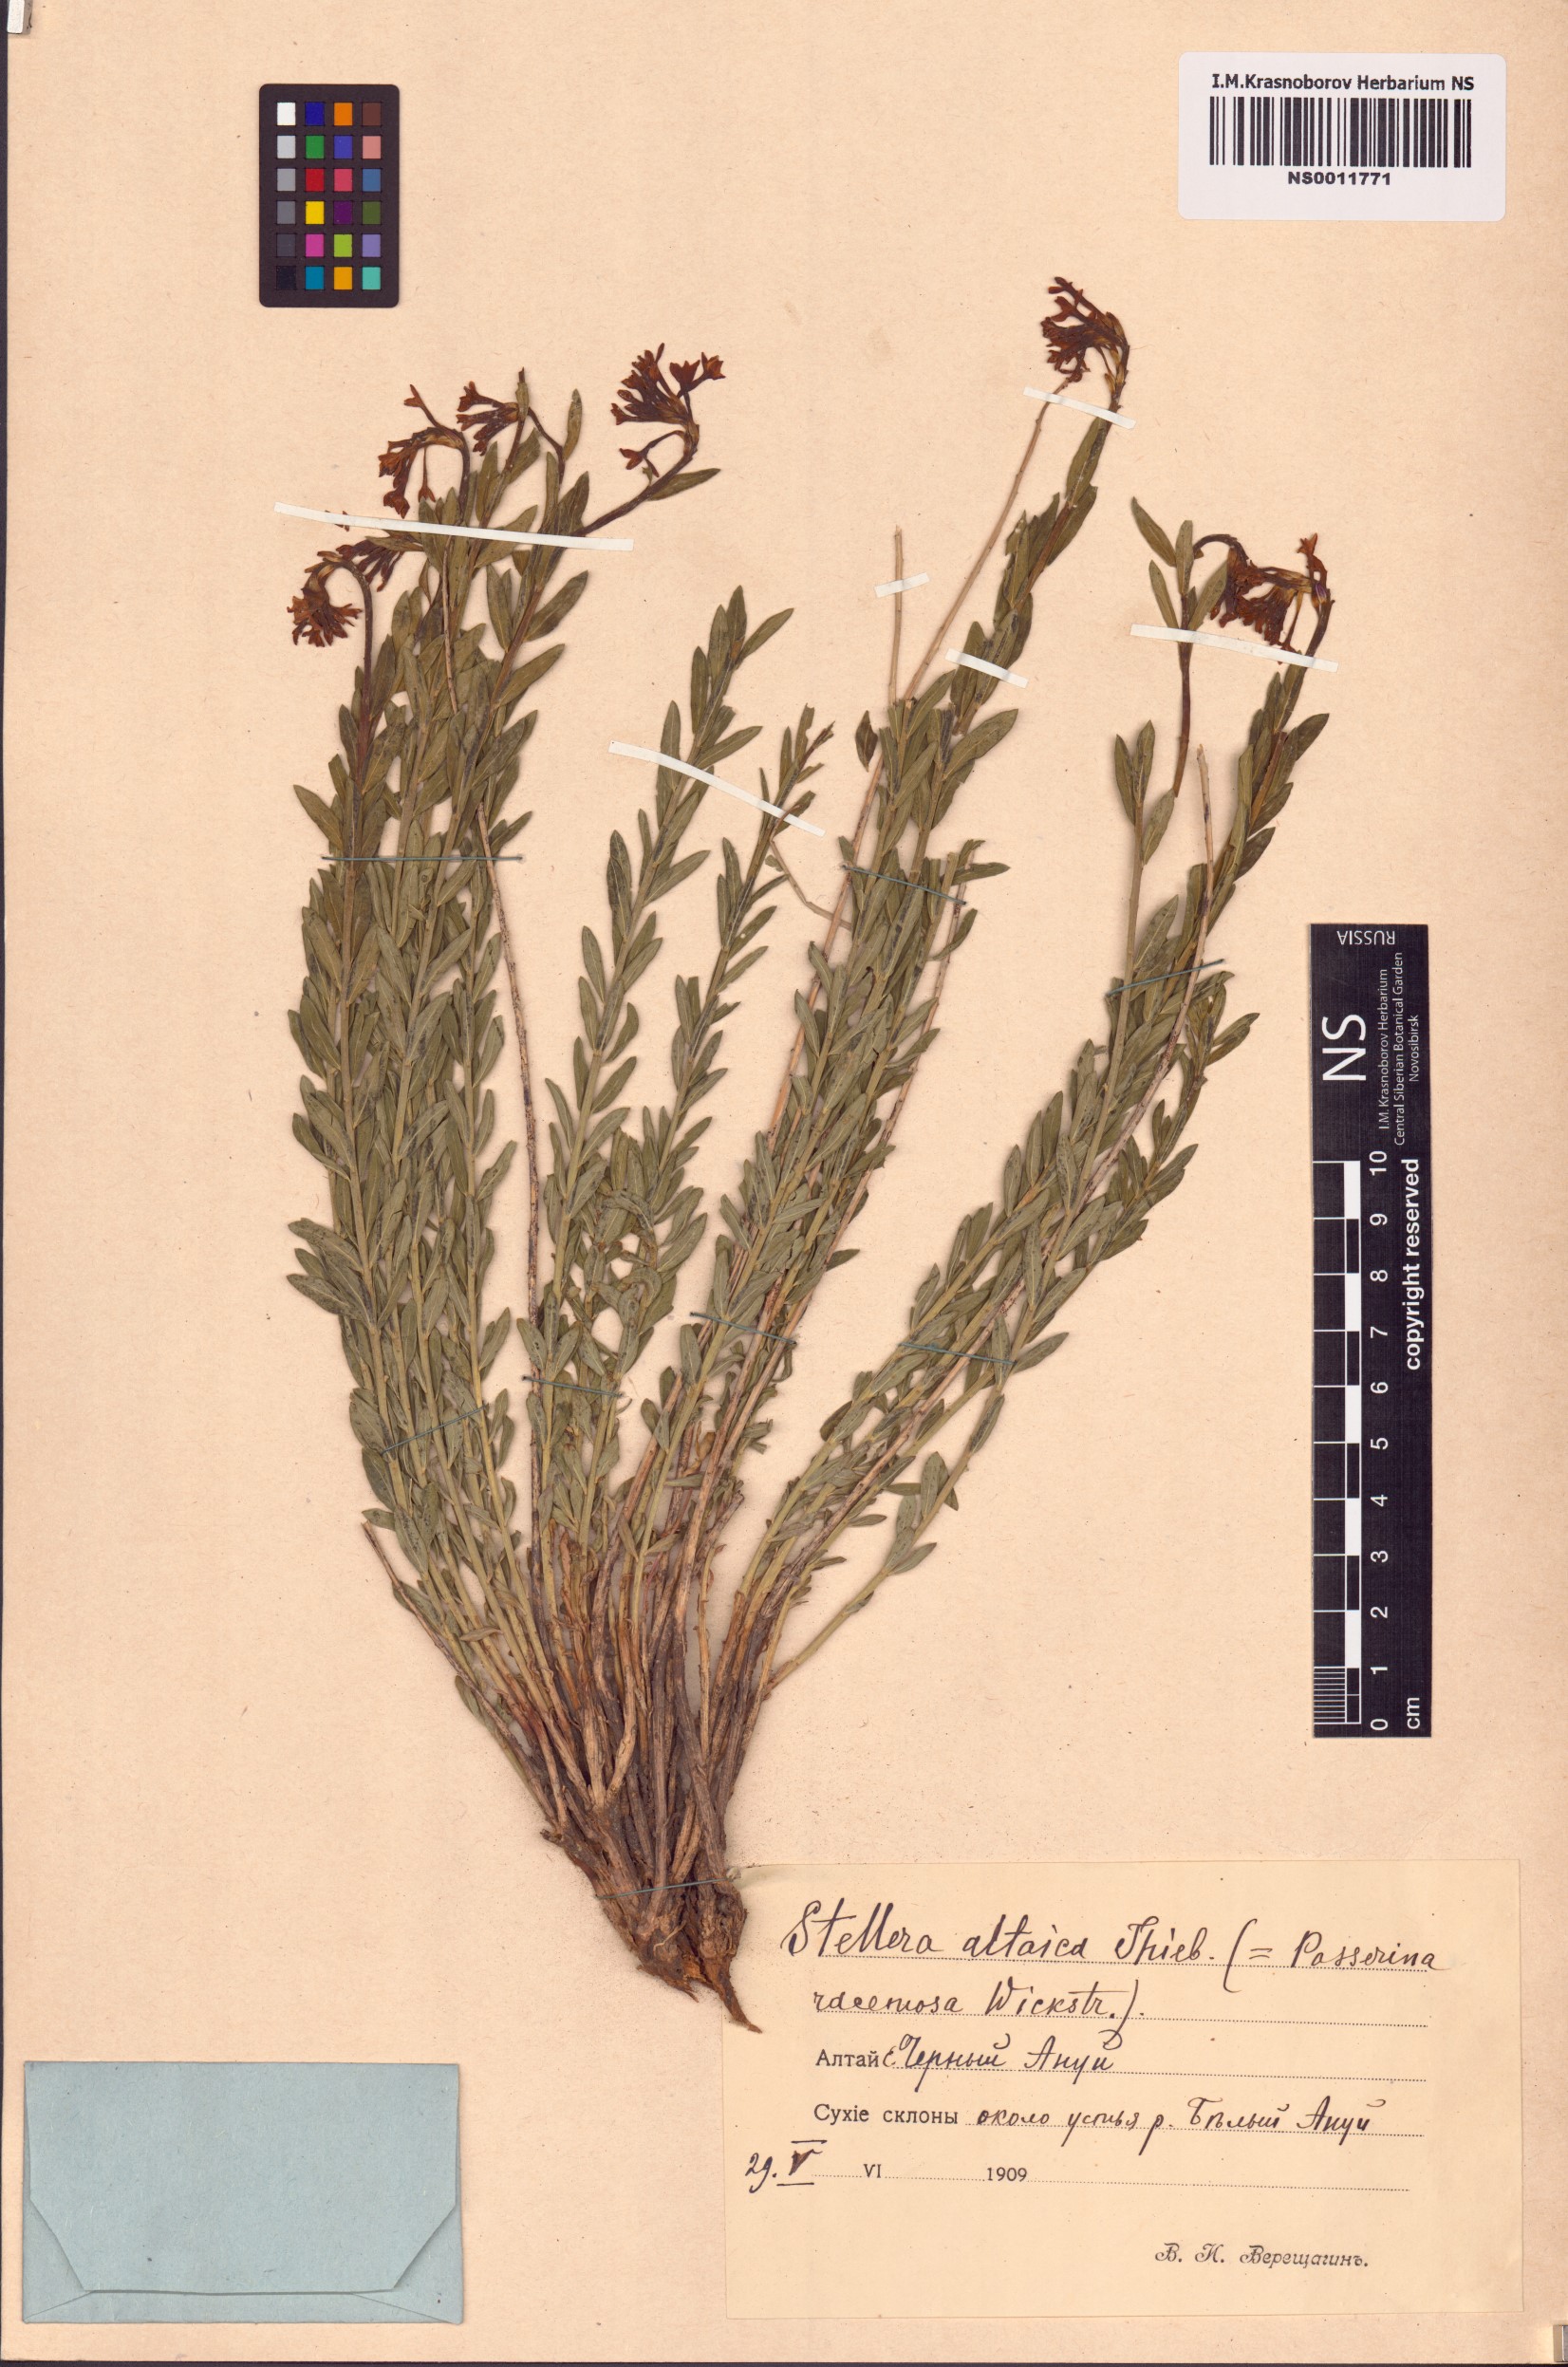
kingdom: Plantae
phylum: Tracheophyta
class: Magnoliopsida
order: Malvales
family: Thymelaeaceae
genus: Diarthron
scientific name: Diarthron altaicum
